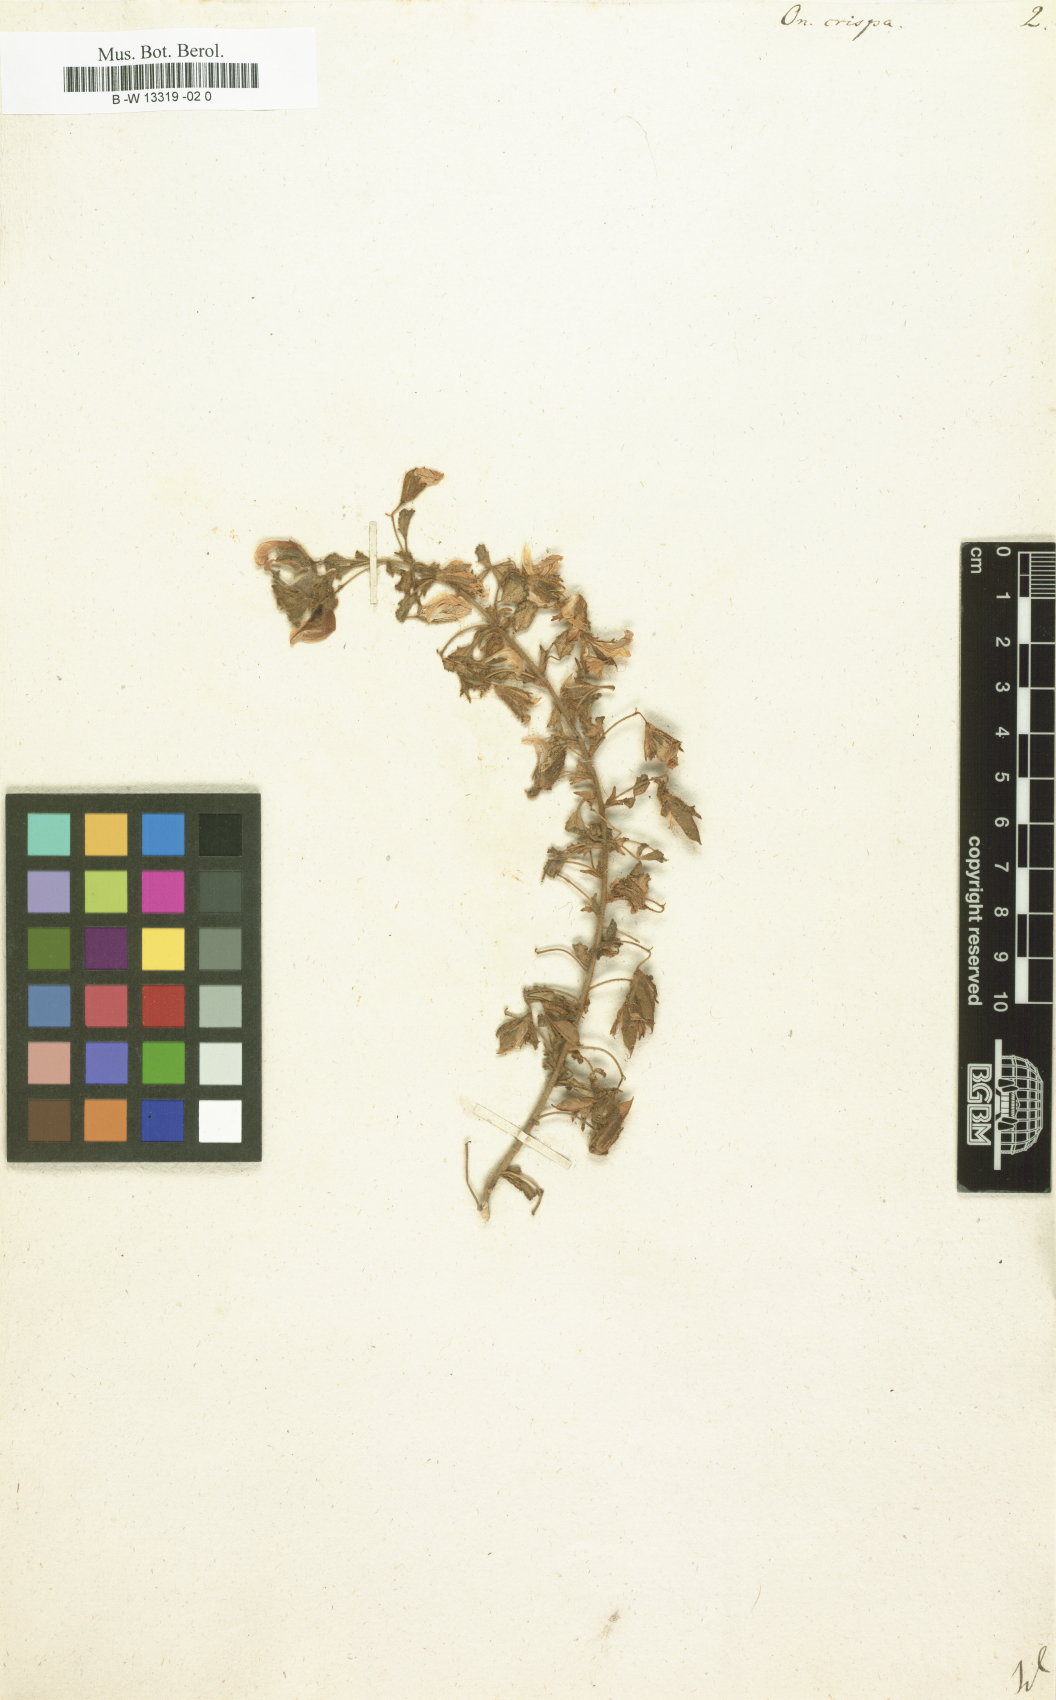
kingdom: Plantae
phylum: Tracheophyta
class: Magnoliopsida
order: Fabales
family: Fabaceae
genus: Ononis
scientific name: Ononis crispa
